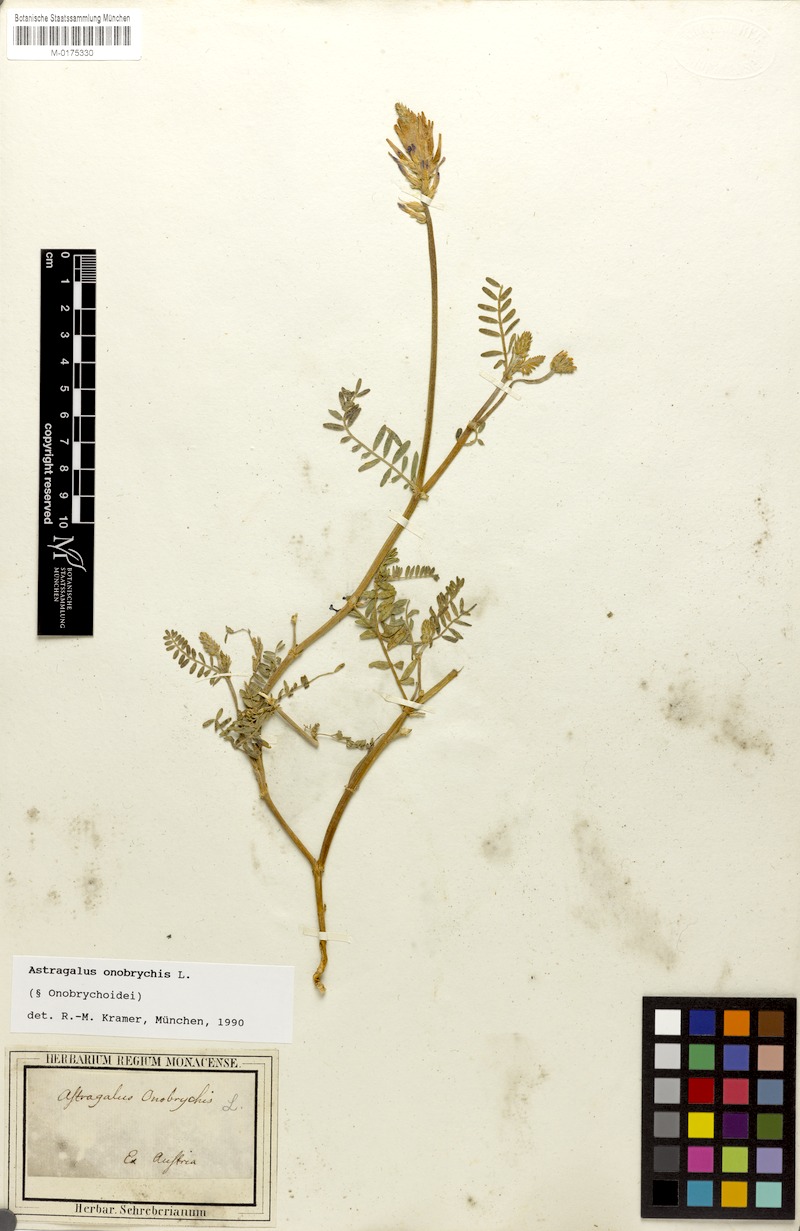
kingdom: Plantae
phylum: Tracheophyta
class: Magnoliopsida
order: Fabales
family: Fabaceae
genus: Astragalus
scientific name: Astragalus onobrychis
